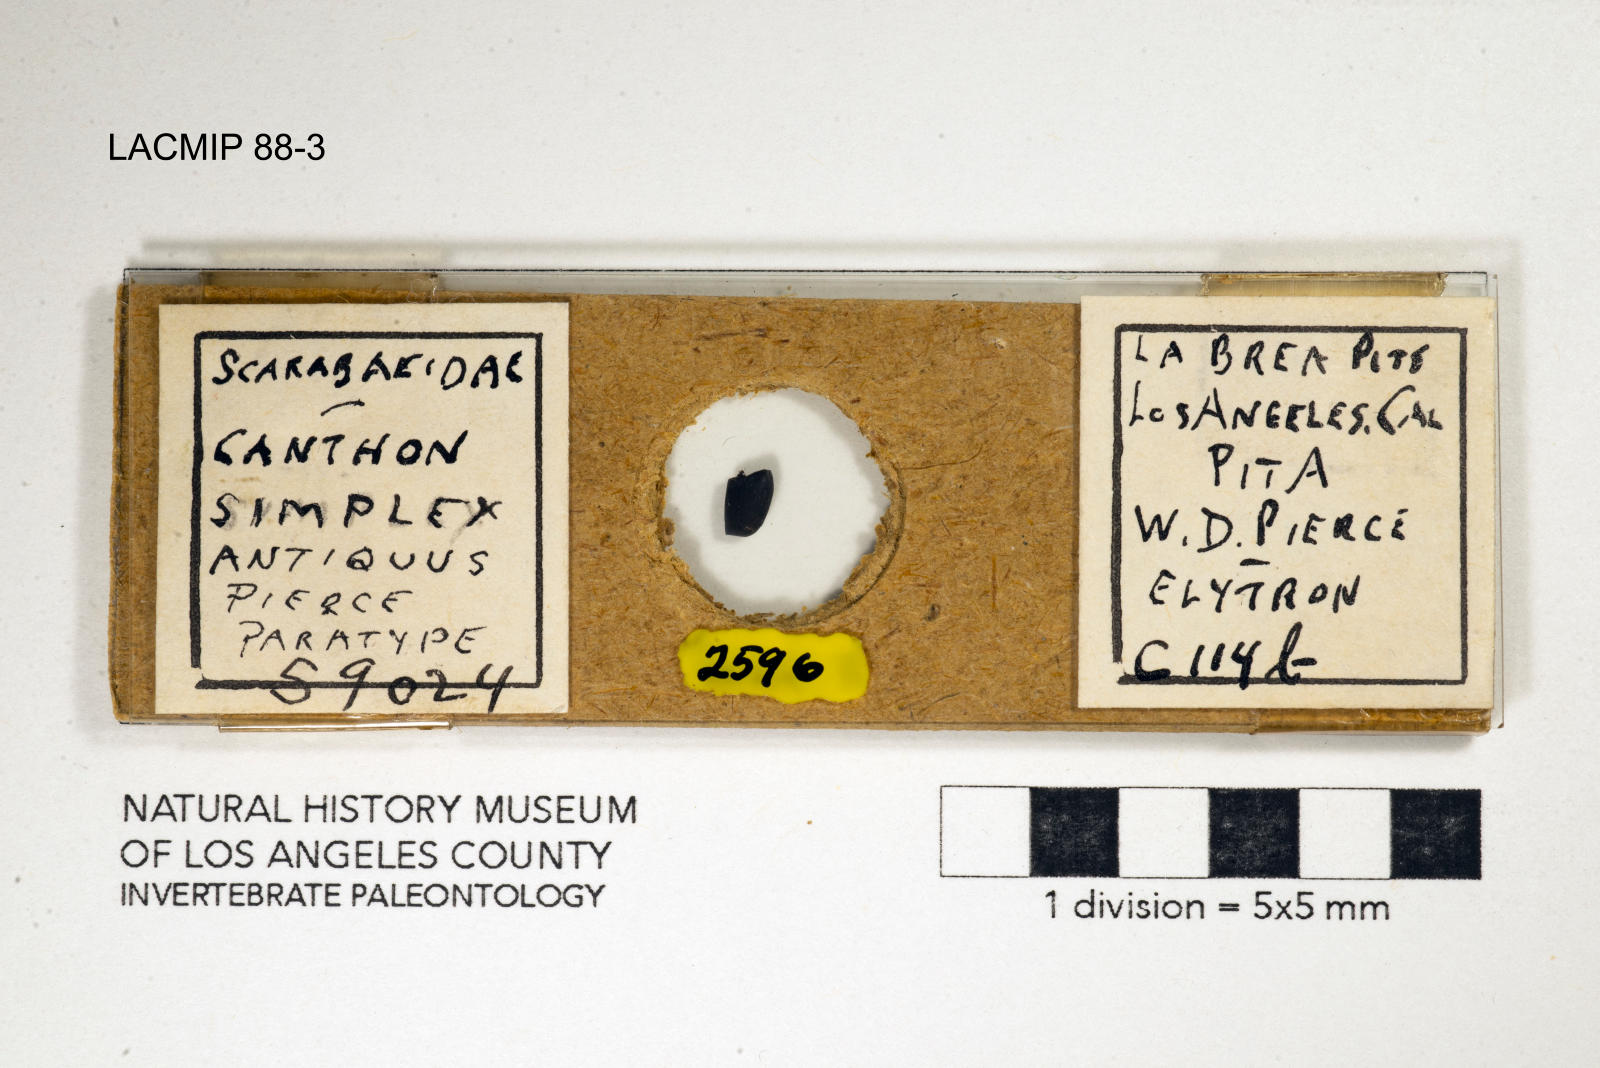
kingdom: Animalia
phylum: Arthropoda
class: Insecta
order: Coleoptera
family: Scarabaeidae
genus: Canthon
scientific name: Canthon simplex
